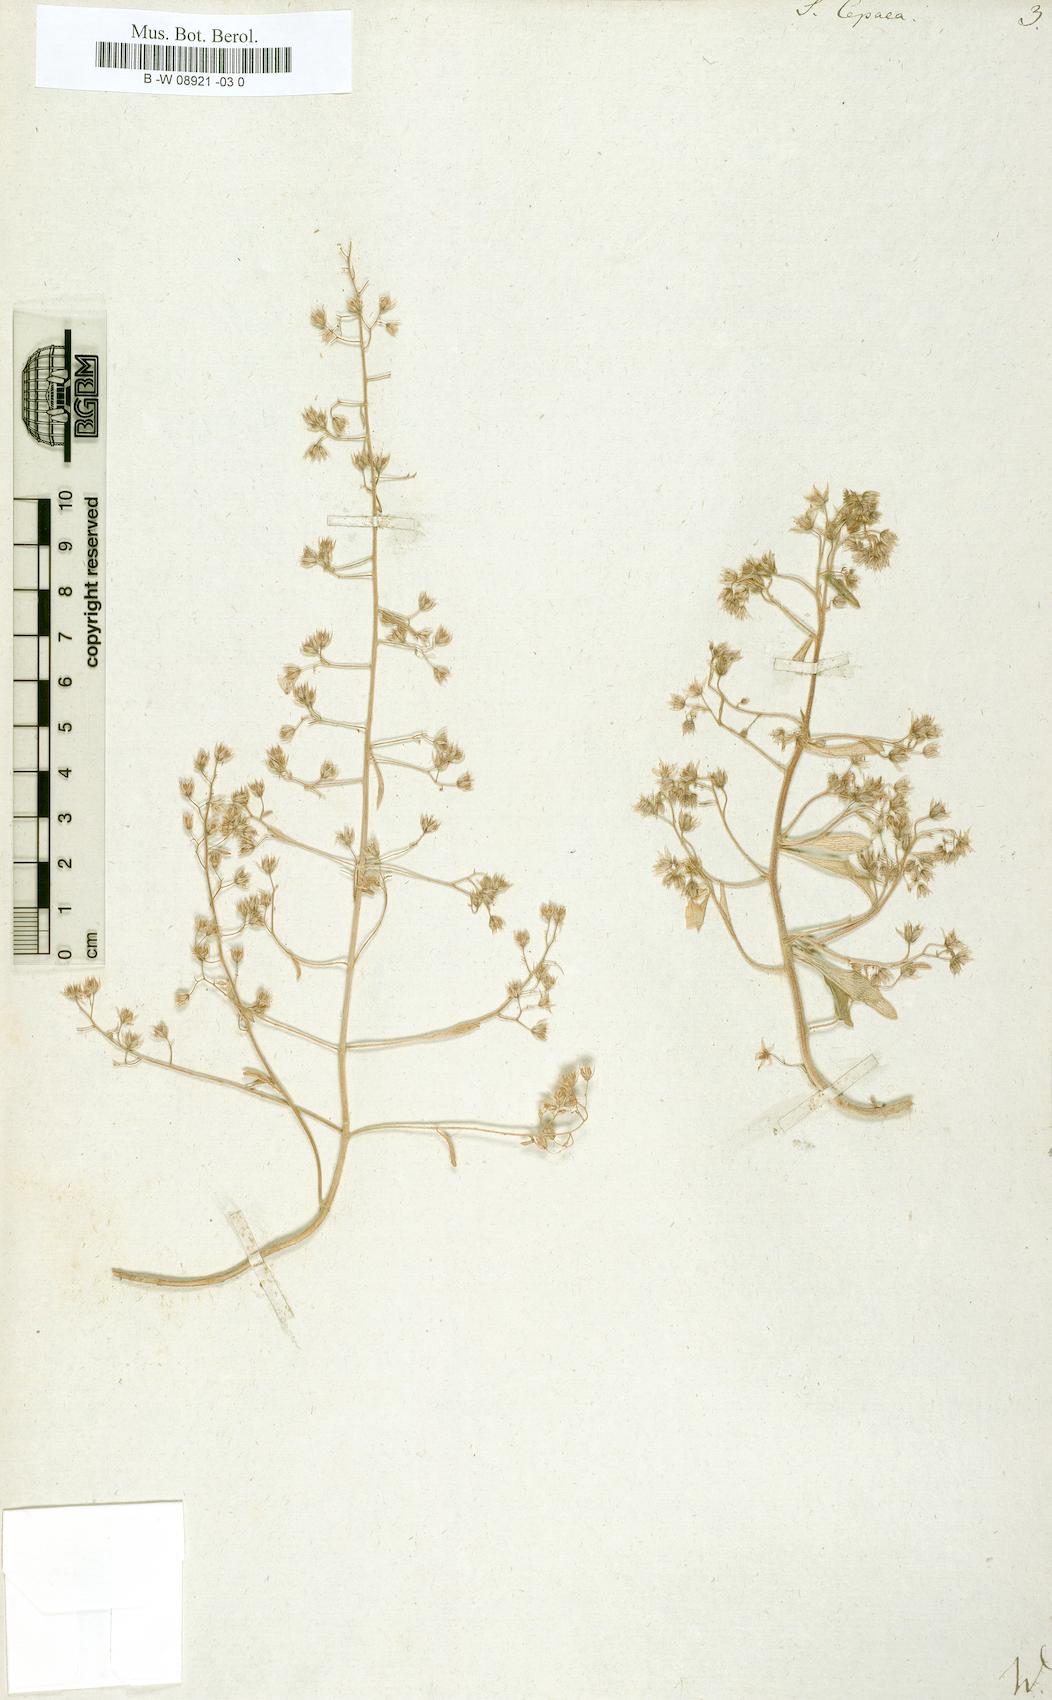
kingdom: Plantae
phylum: Tracheophyta
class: Magnoliopsida
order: Saxifragales
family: Crassulaceae
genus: Sedum
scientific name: Sedum cepaea
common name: Pink stonecrop
